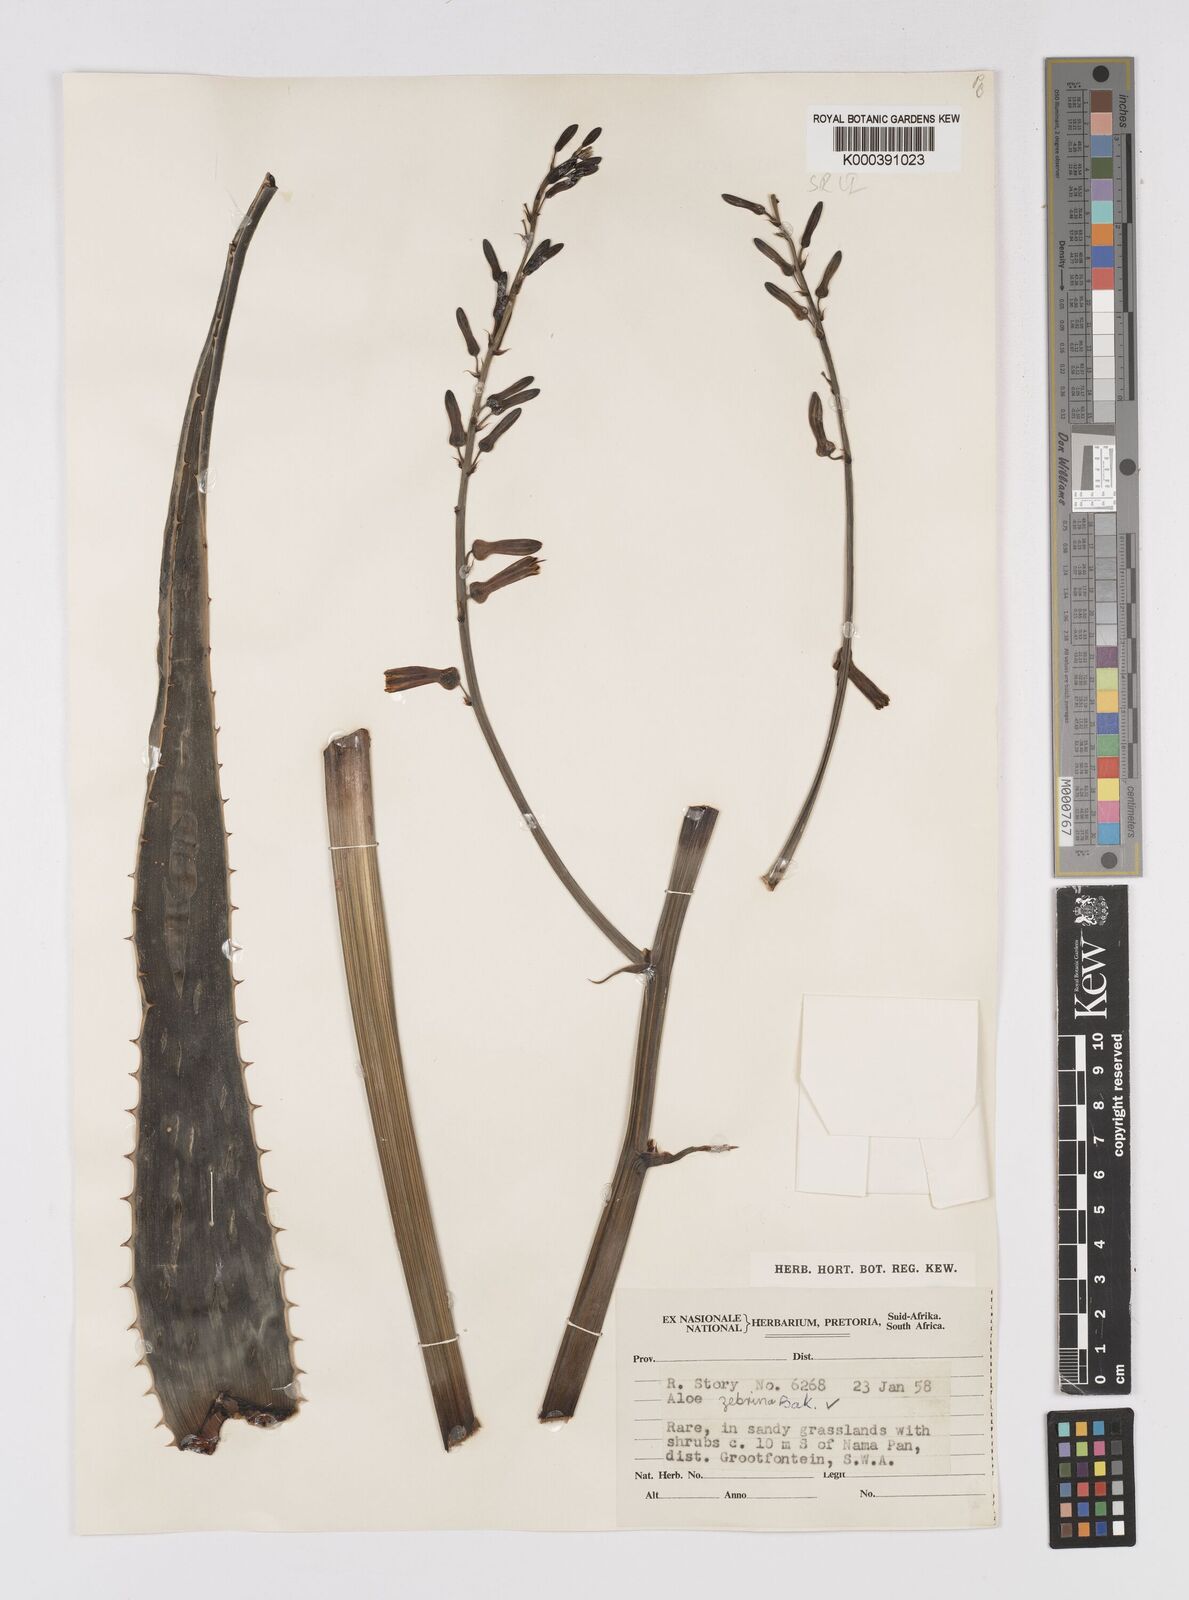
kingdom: Plantae
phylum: Tracheophyta
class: Liliopsida
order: Asparagales
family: Asphodelaceae
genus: Aloe
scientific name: Aloe zebrina
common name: Zebra-leaf aloe
